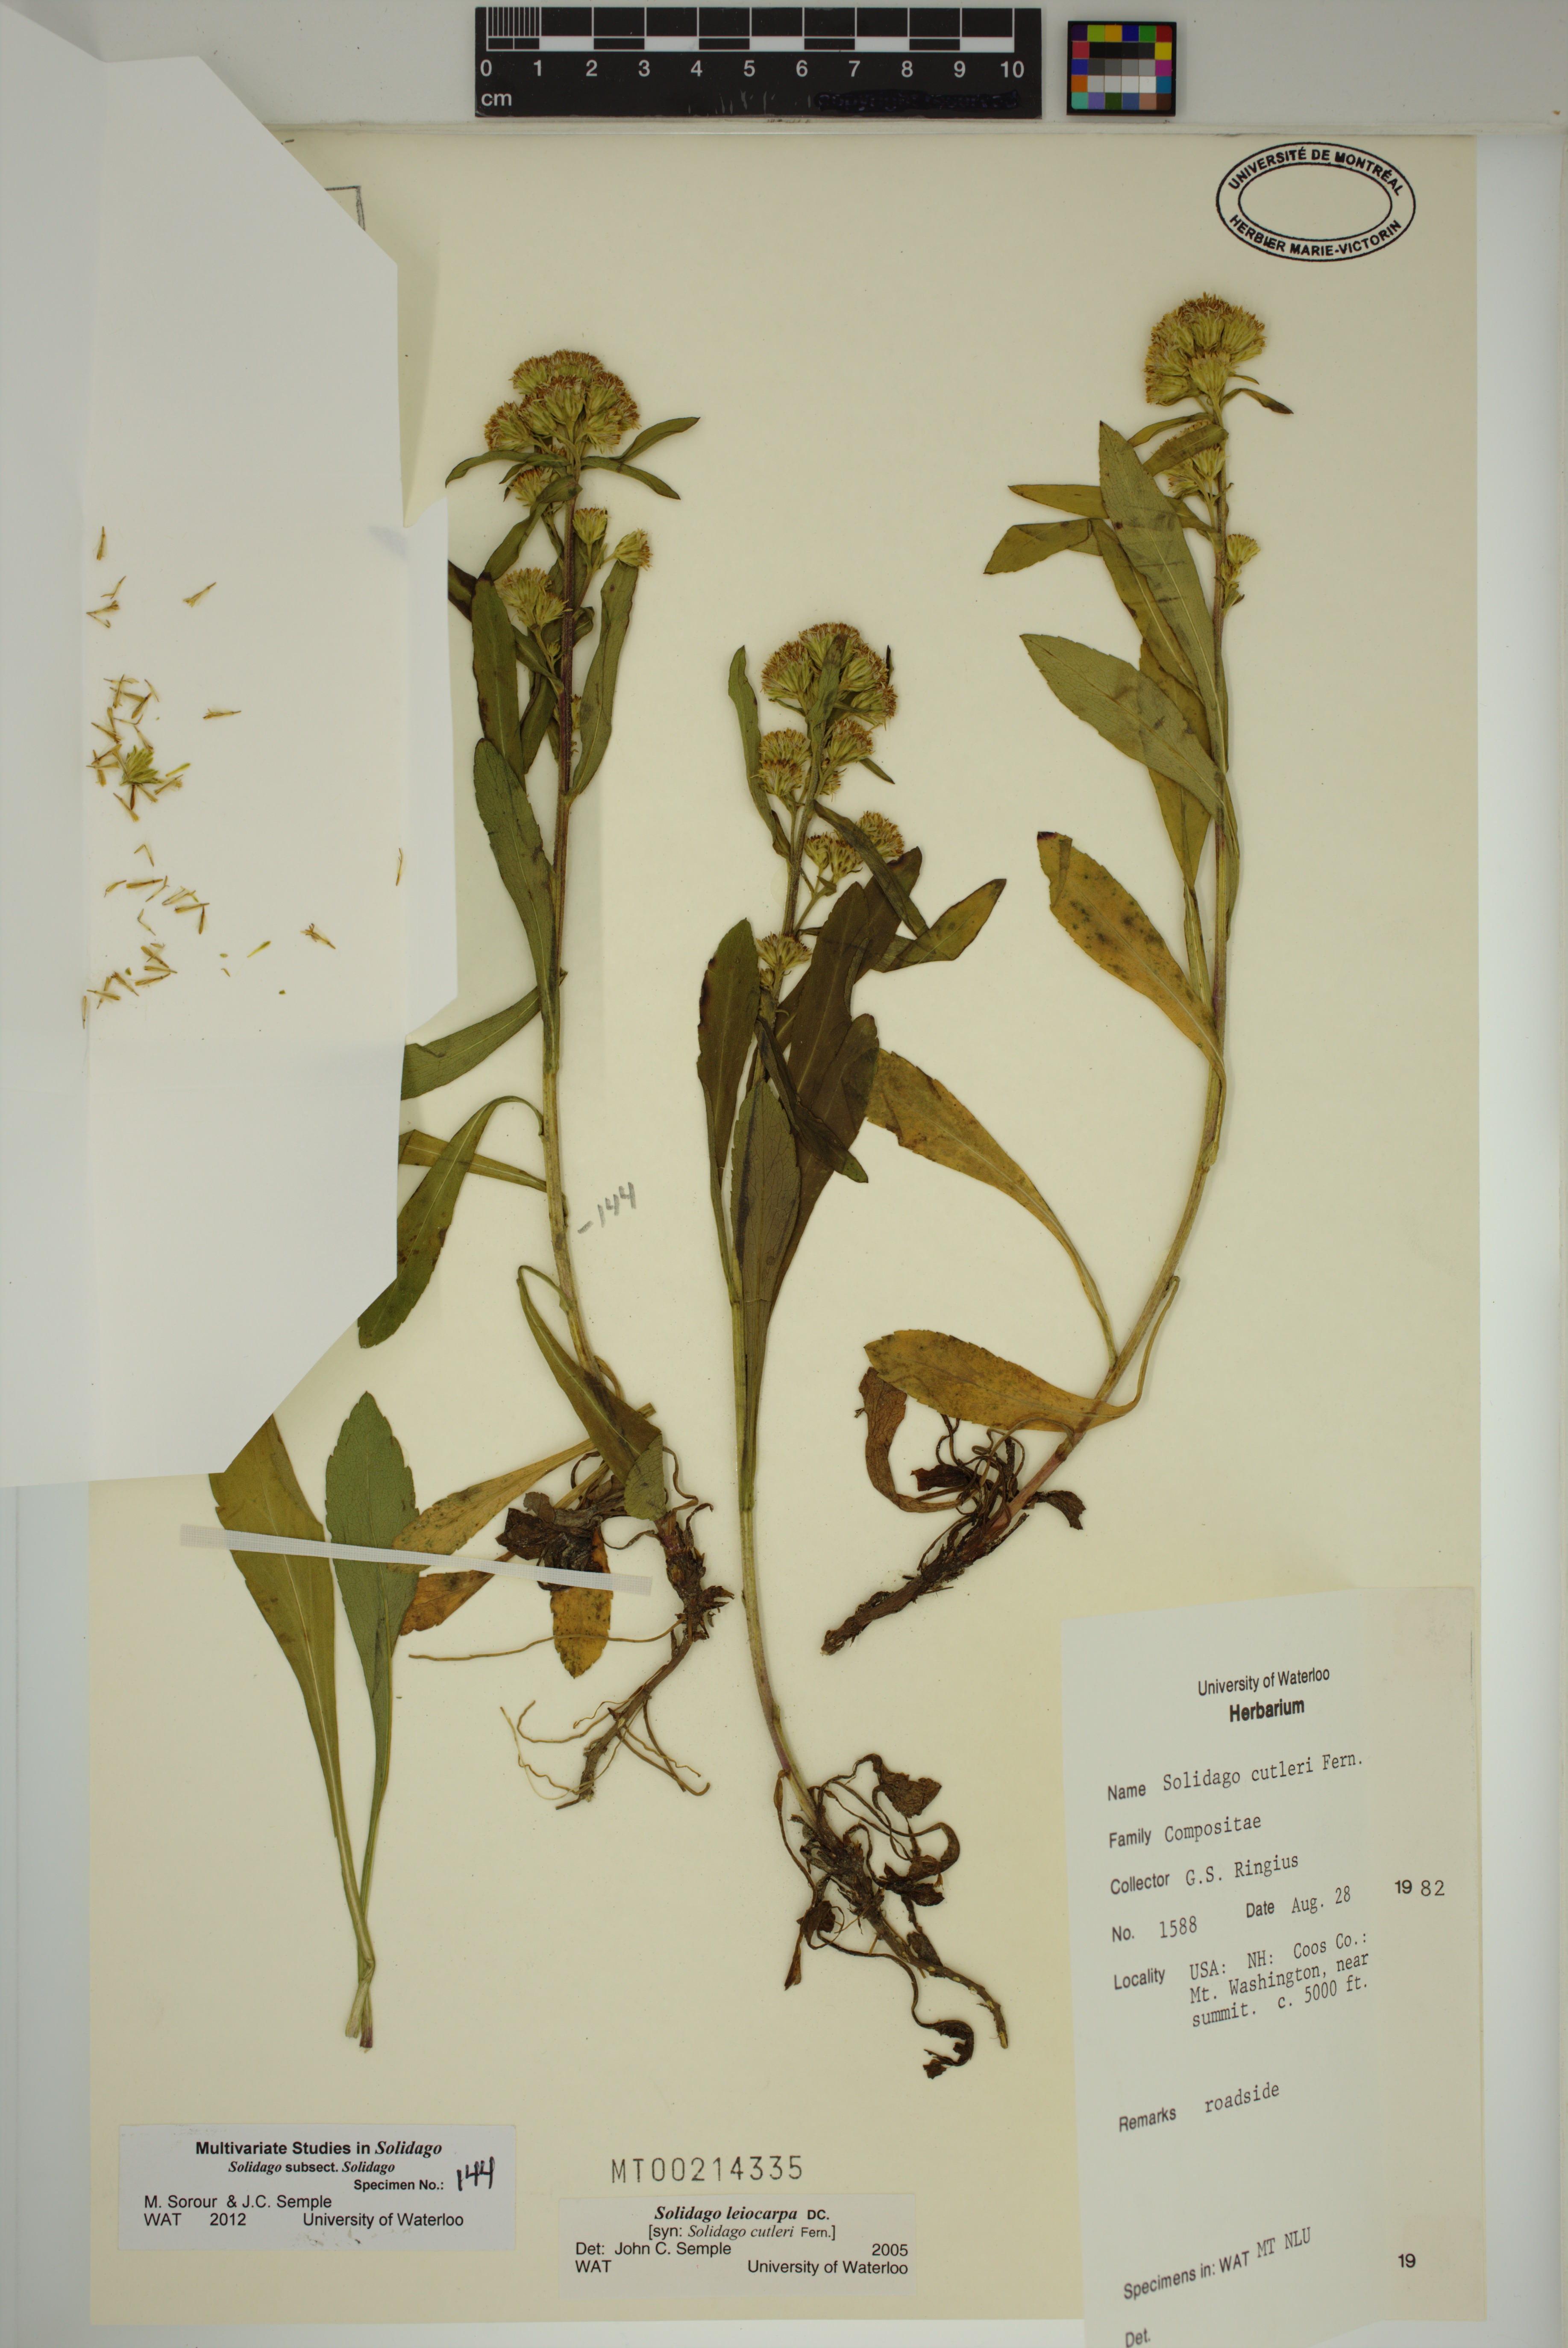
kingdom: Plantae
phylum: Tracheophyta
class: Magnoliopsida
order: Asterales
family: Asteraceae
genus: Solidago
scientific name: Solidago leiocarpa
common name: Cutler's alpine goldenrod
